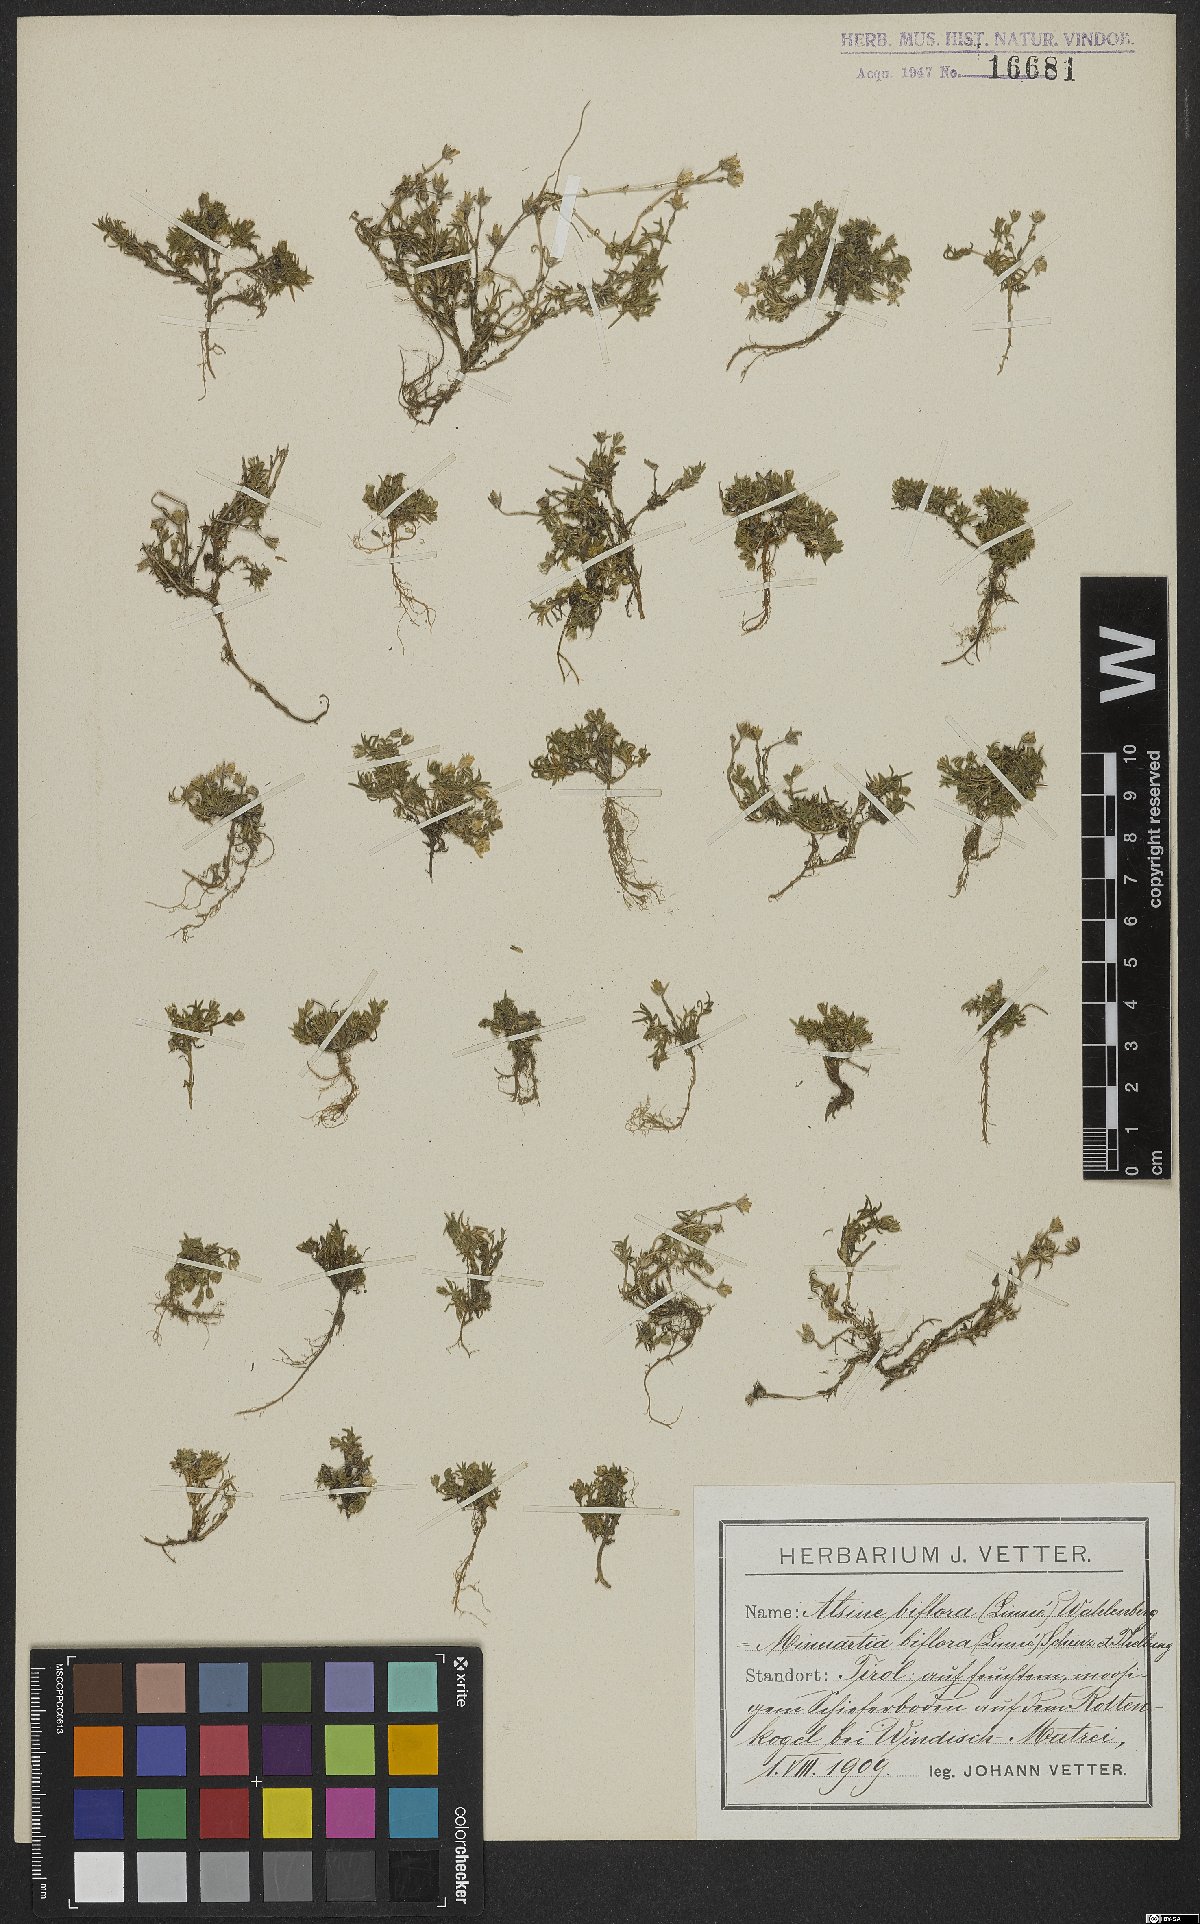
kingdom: Plantae
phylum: Tracheophyta
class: Magnoliopsida
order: Caryophyllales
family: Caryophyllaceae
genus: Cherleria
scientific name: Cherleria biflora
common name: Mountain sandwort
